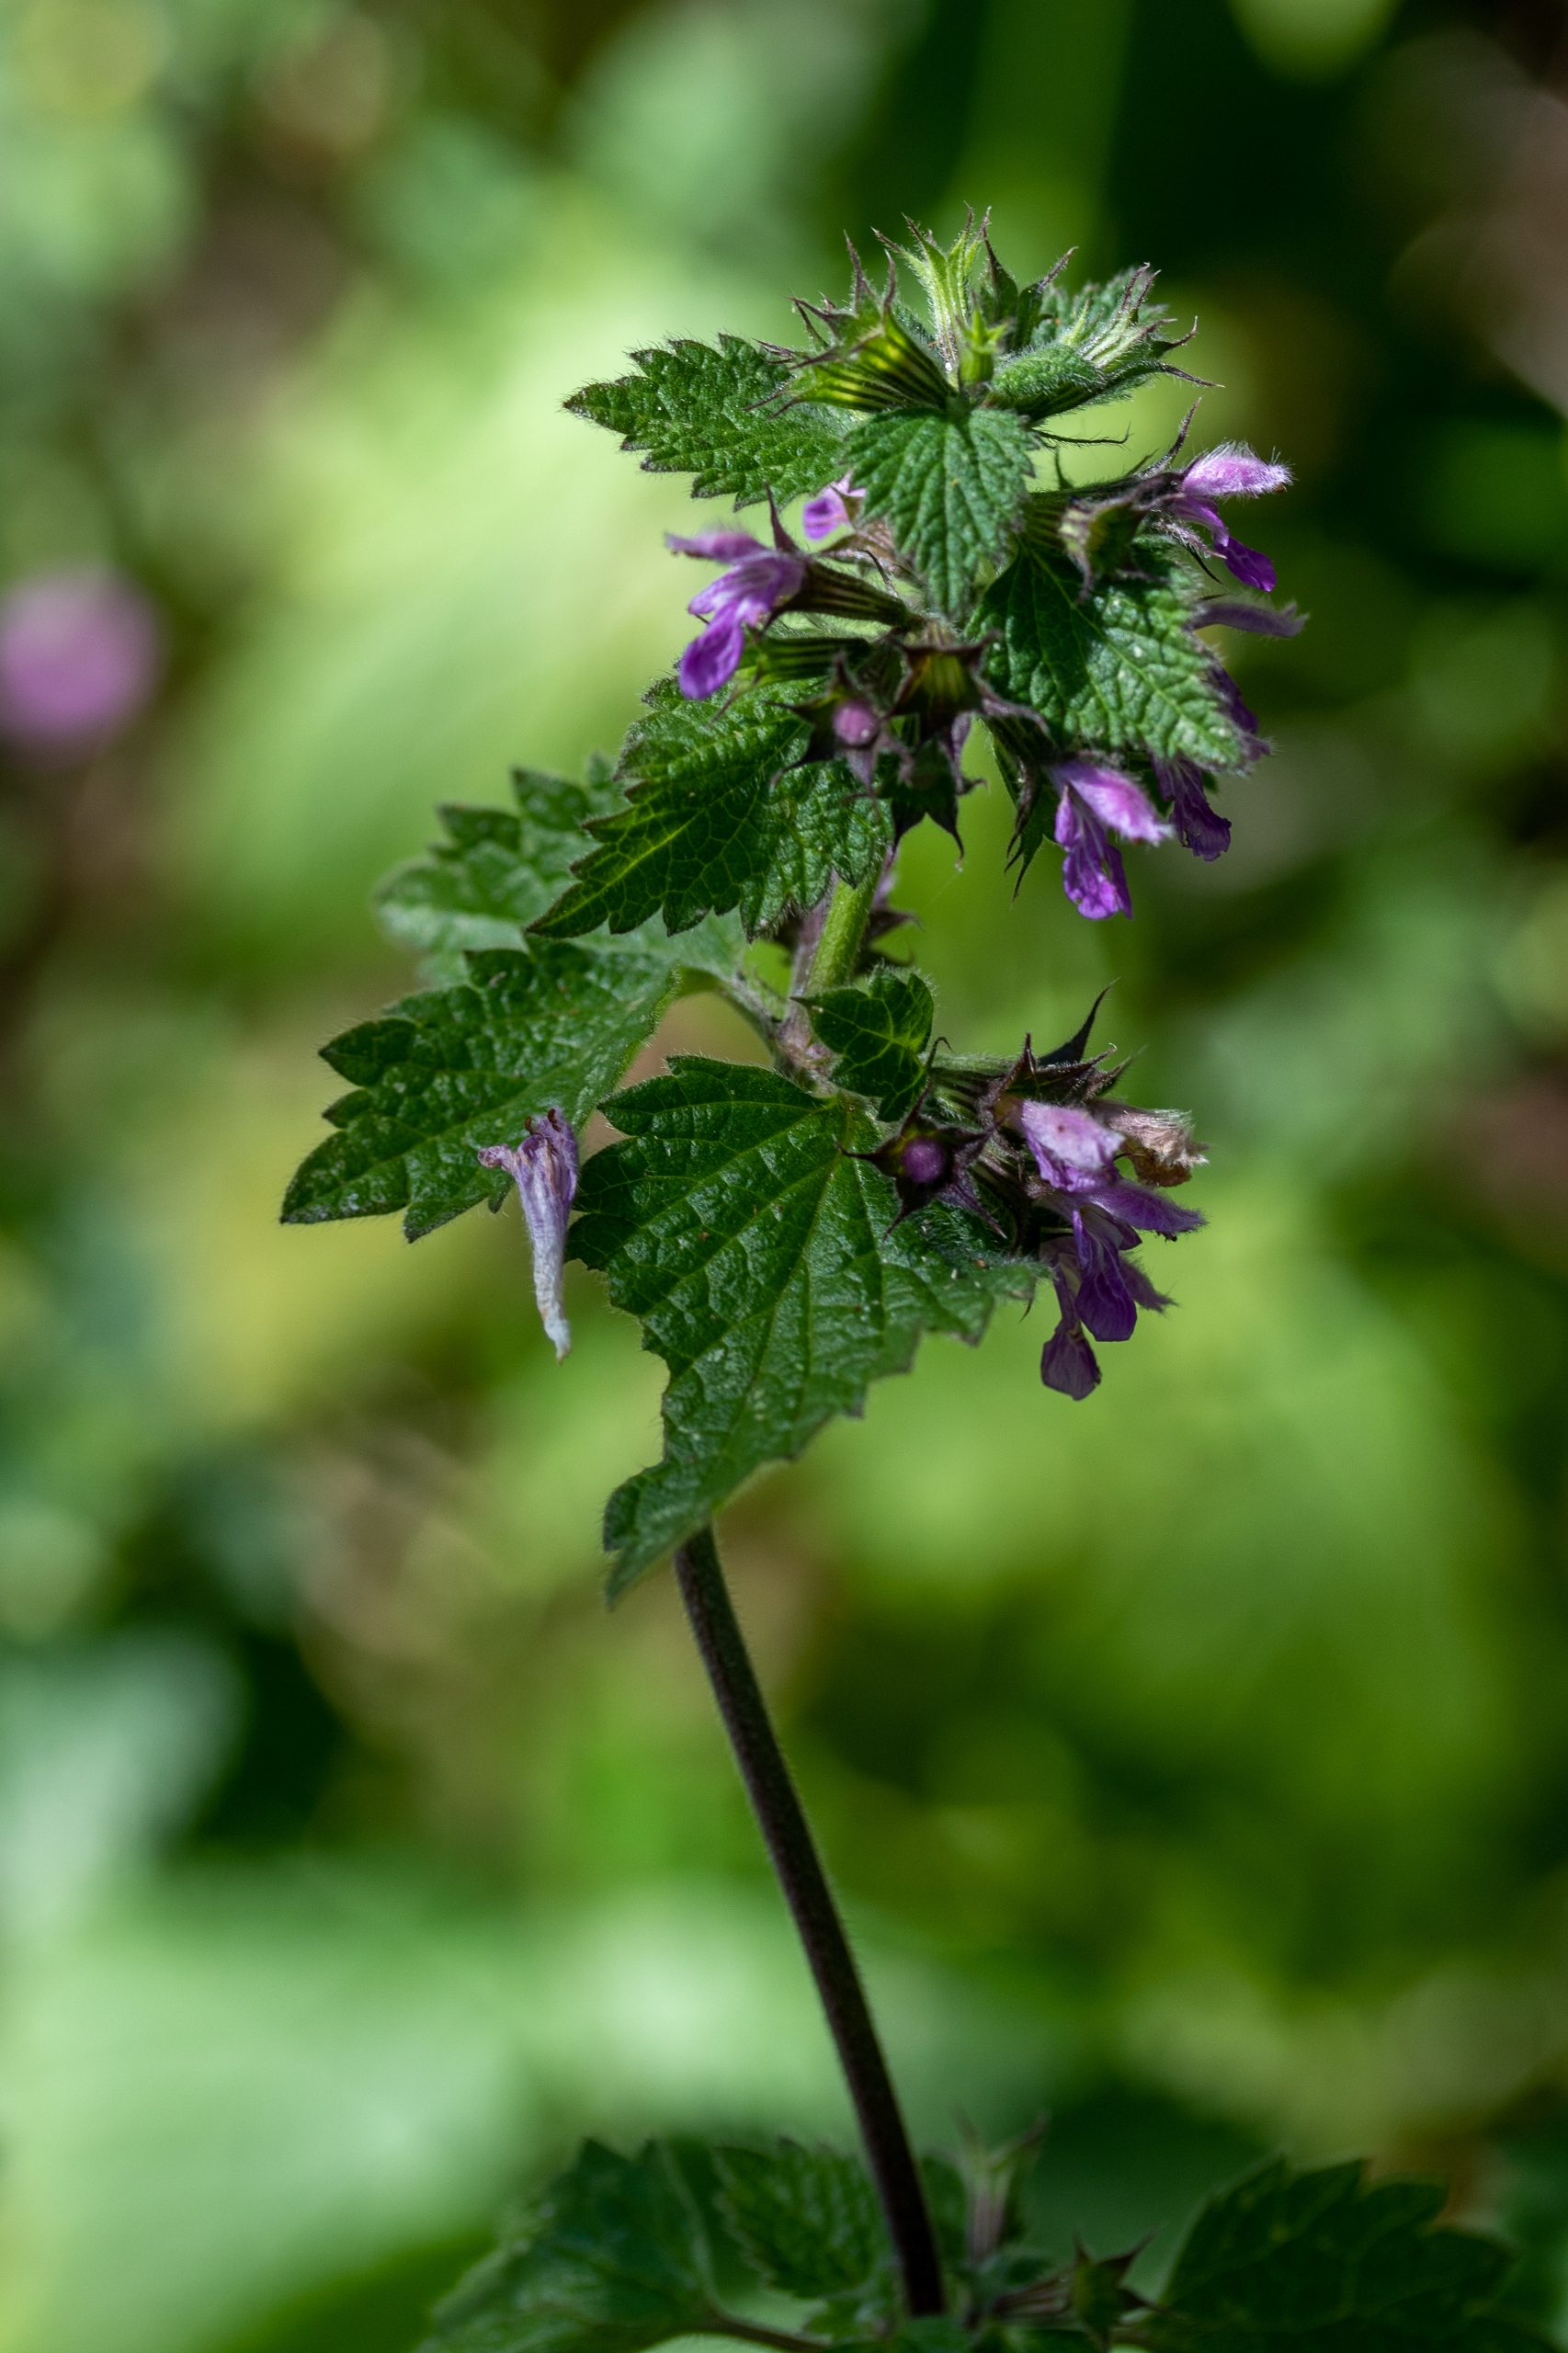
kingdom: Plantae
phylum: Tracheophyta
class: Magnoliopsida
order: Lamiales
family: Lamiaceae
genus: Ballota
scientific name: Ballota nigra
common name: Tandbæger
